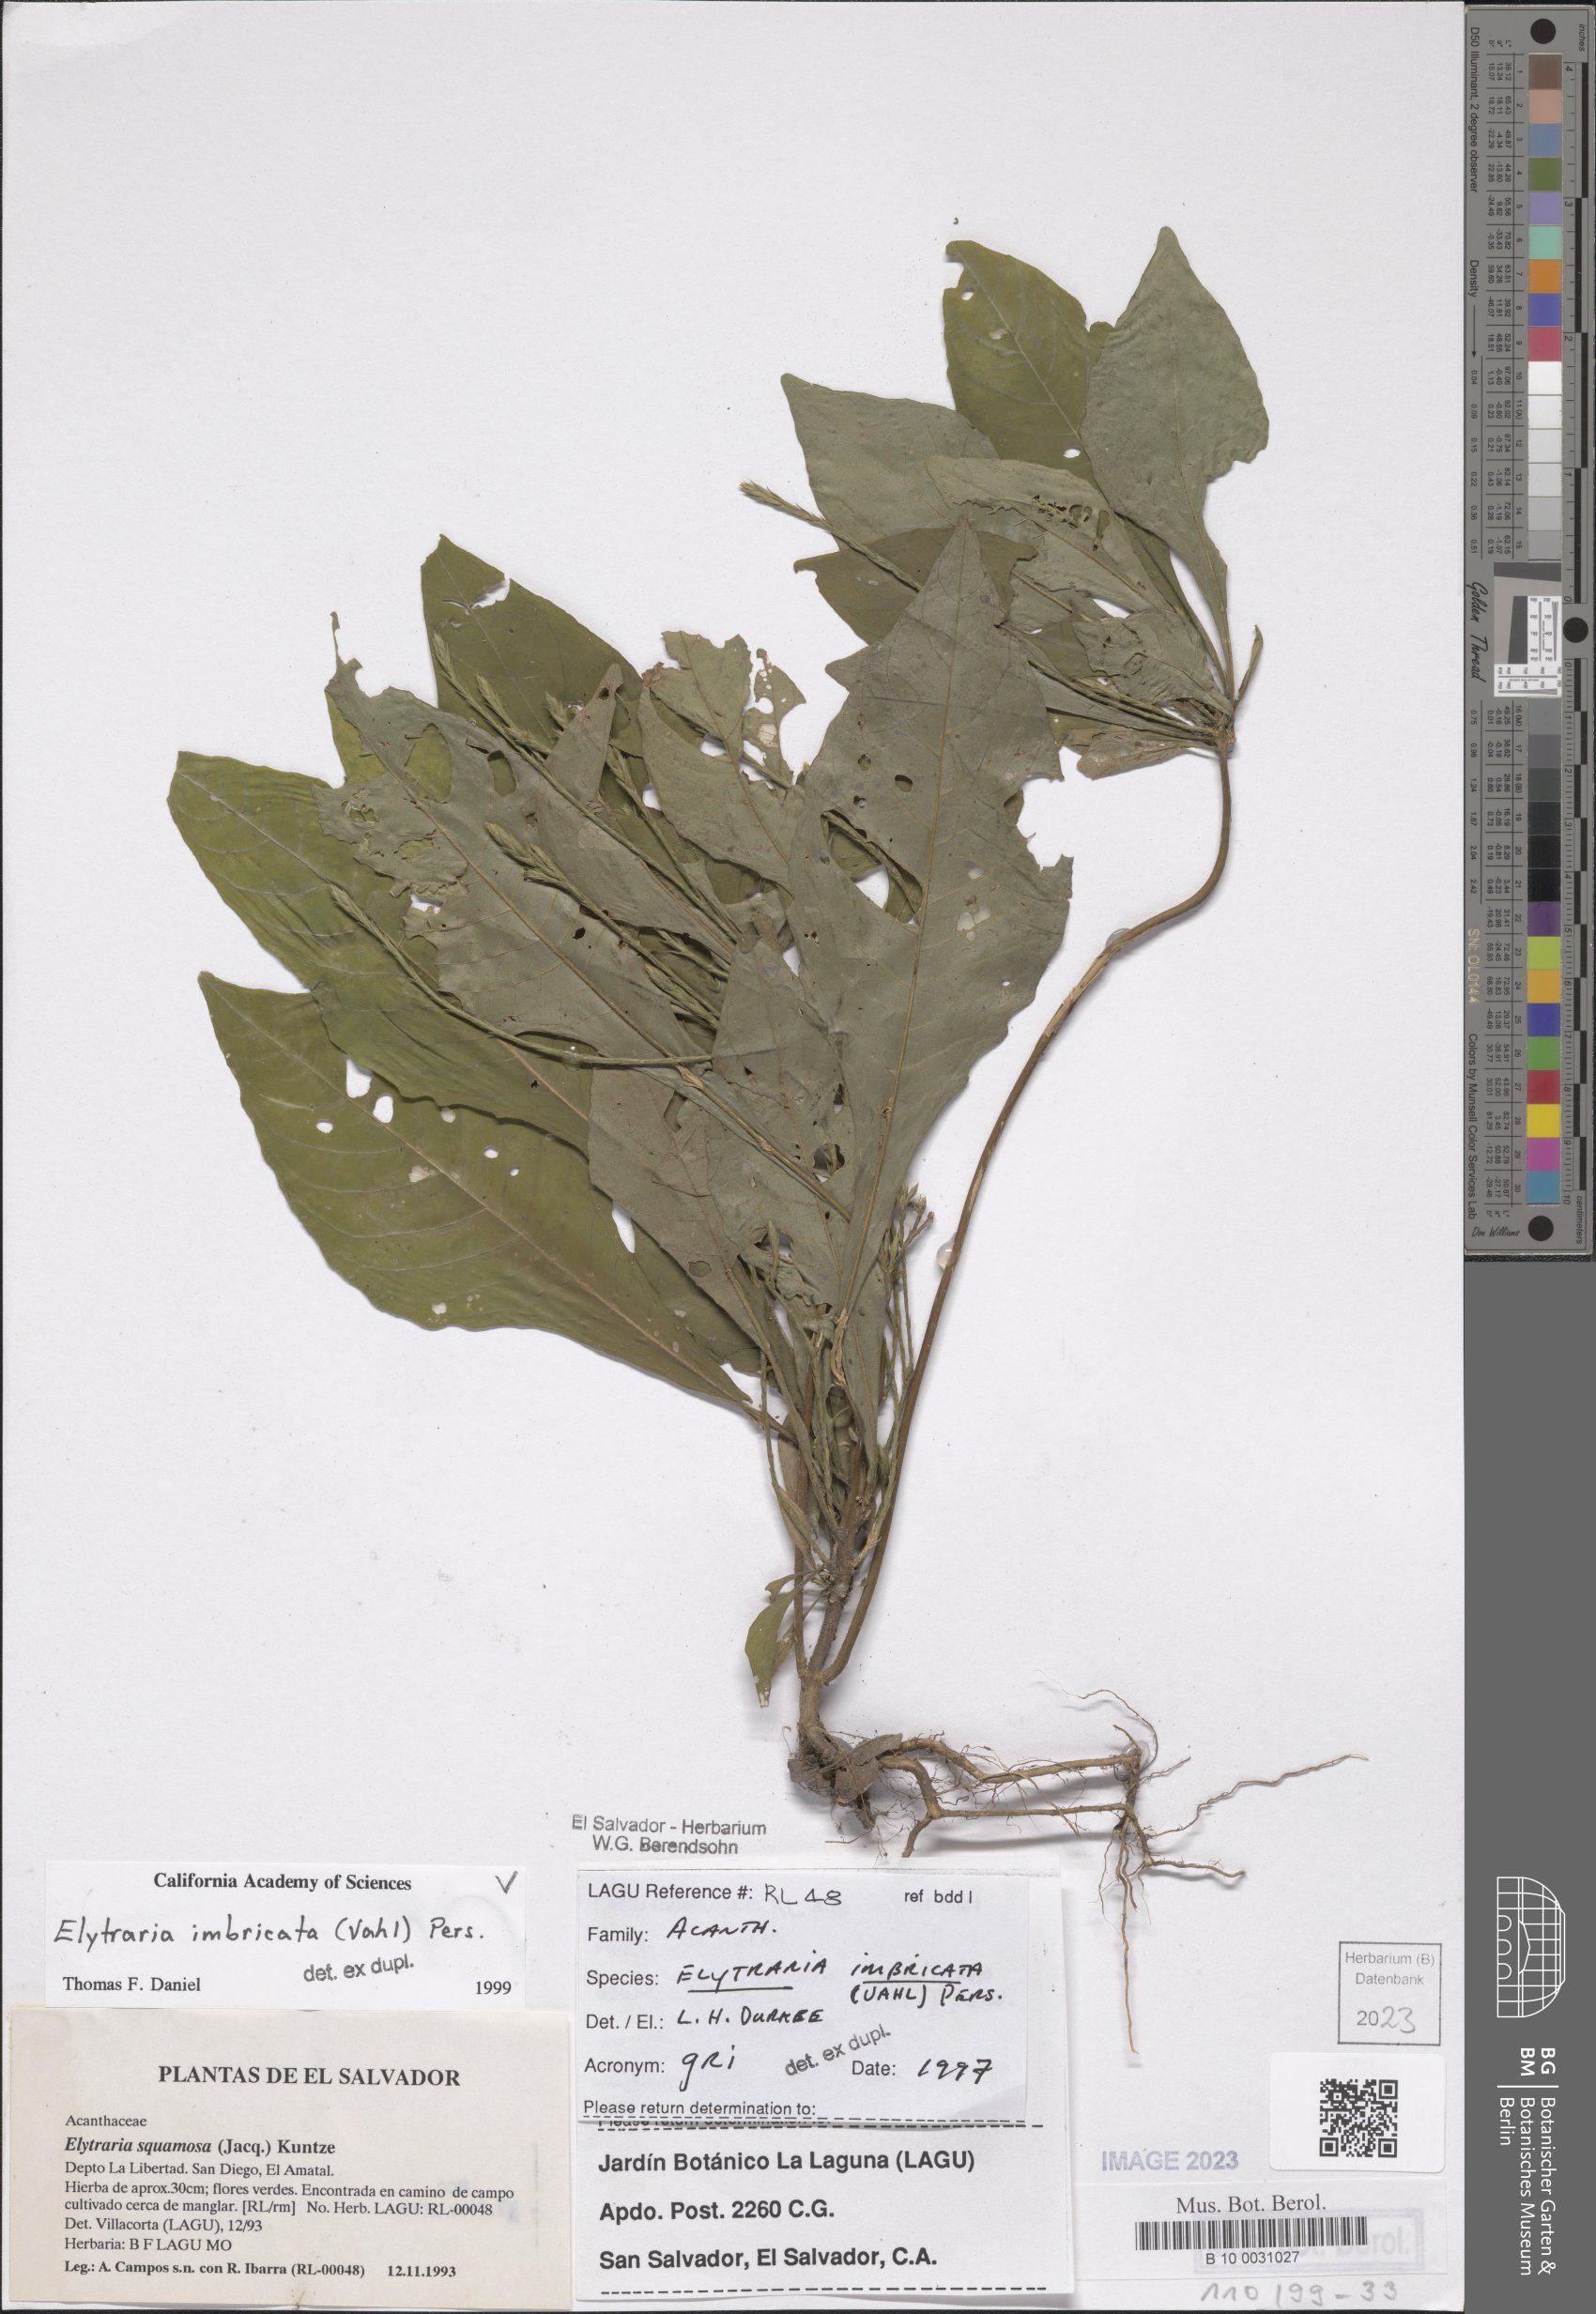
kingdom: Plantae
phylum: Tracheophyta
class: Magnoliopsida
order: Lamiales
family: Acanthaceae
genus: Elytraria
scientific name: Elytraria imbricata
